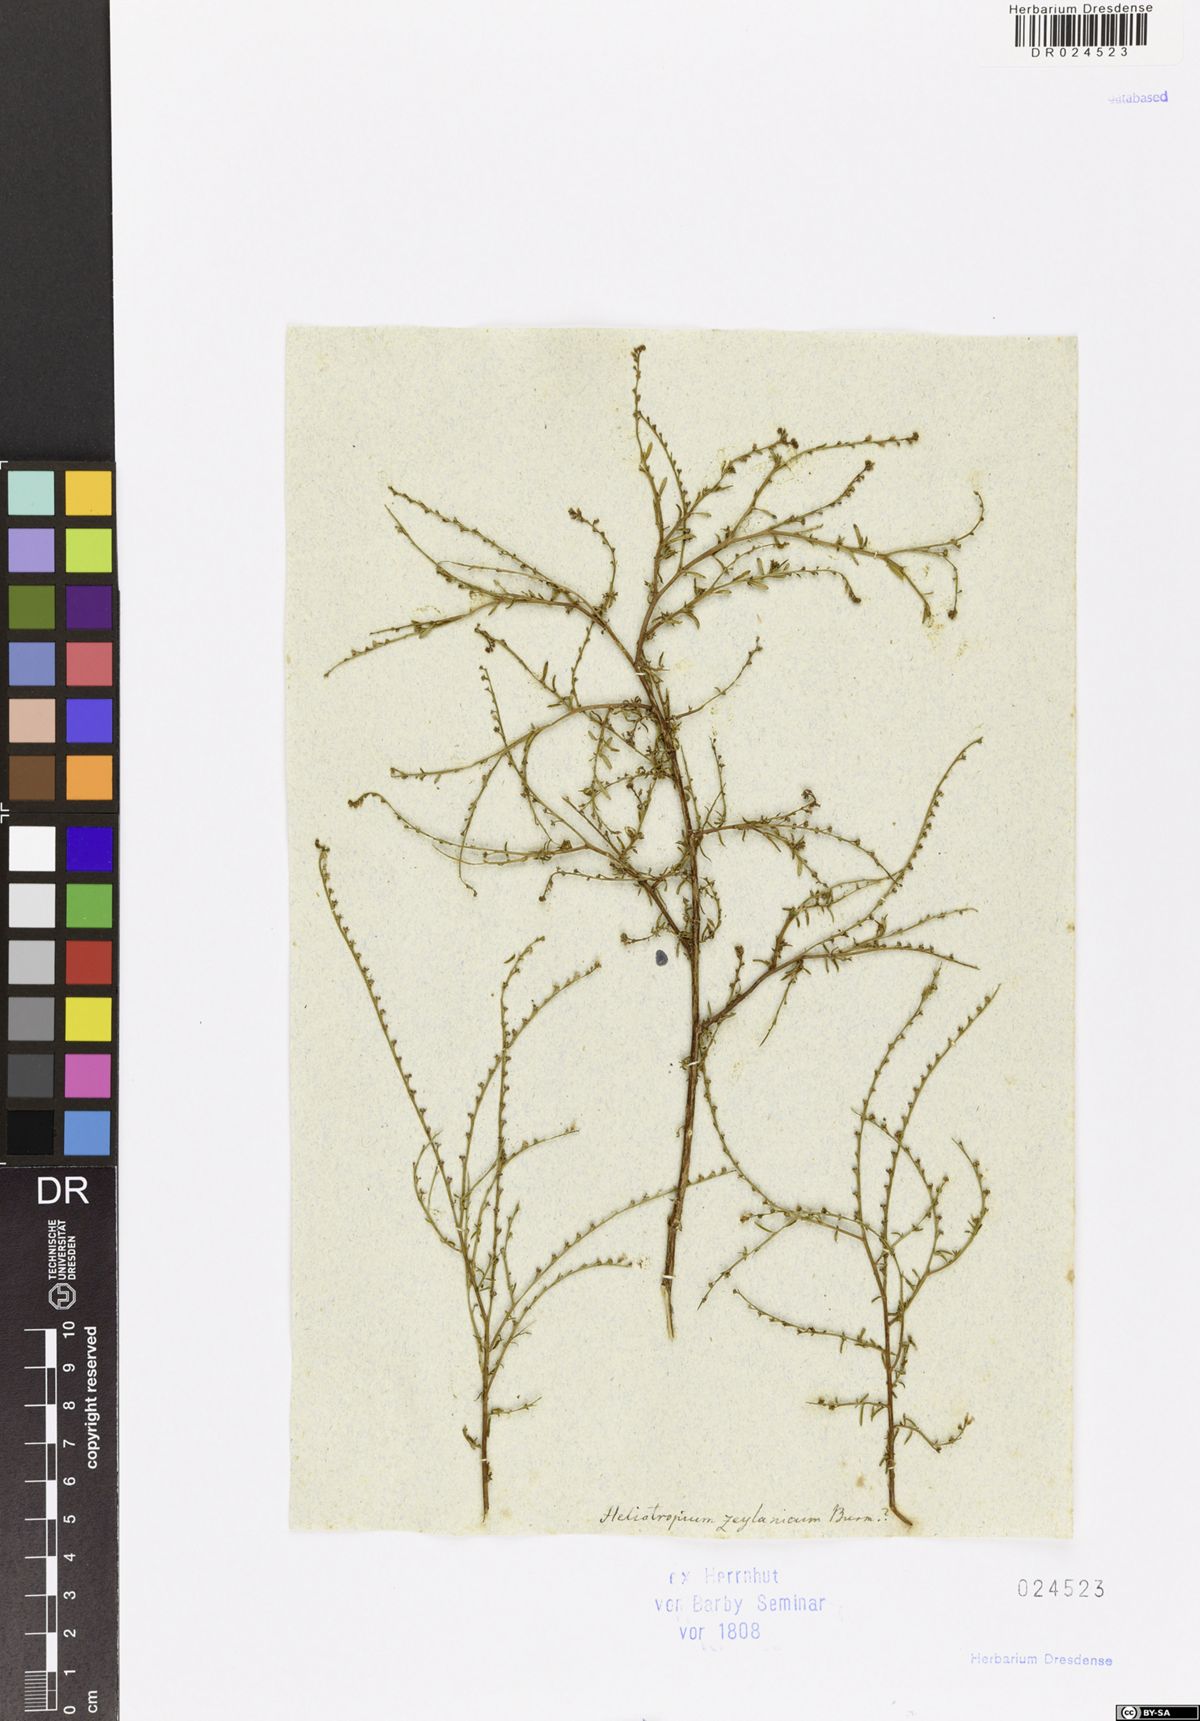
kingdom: Plantae
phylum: Tracheophyta
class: Magnoliopsida
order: Boraginales
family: Heliotropiaceae
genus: Heliotropium
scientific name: Heliotropium zeylanicum
